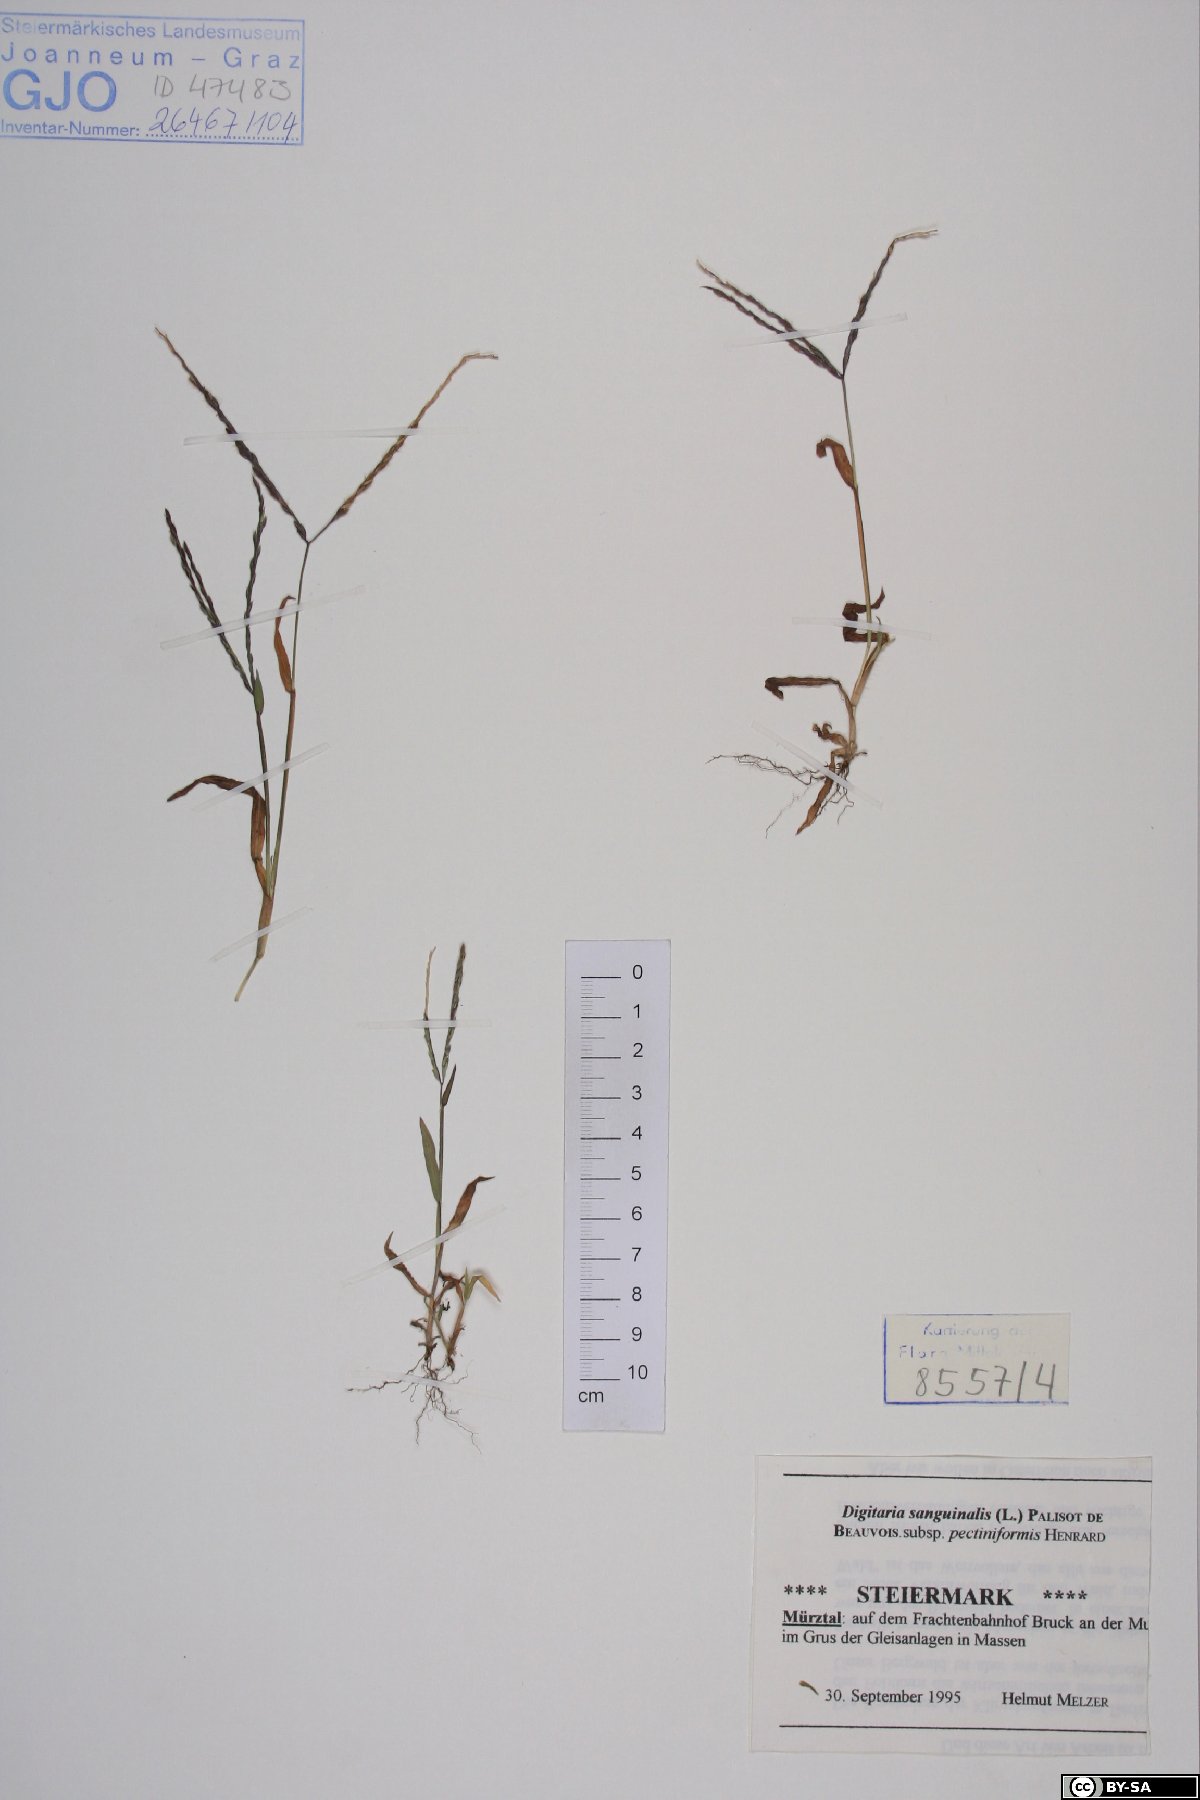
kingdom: Plantae
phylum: Tracheophyta
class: Liliopsida
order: Poales
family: Poaceae
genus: Digitaria
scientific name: Digitaria sanguinalis
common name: Hairy crabgrass
